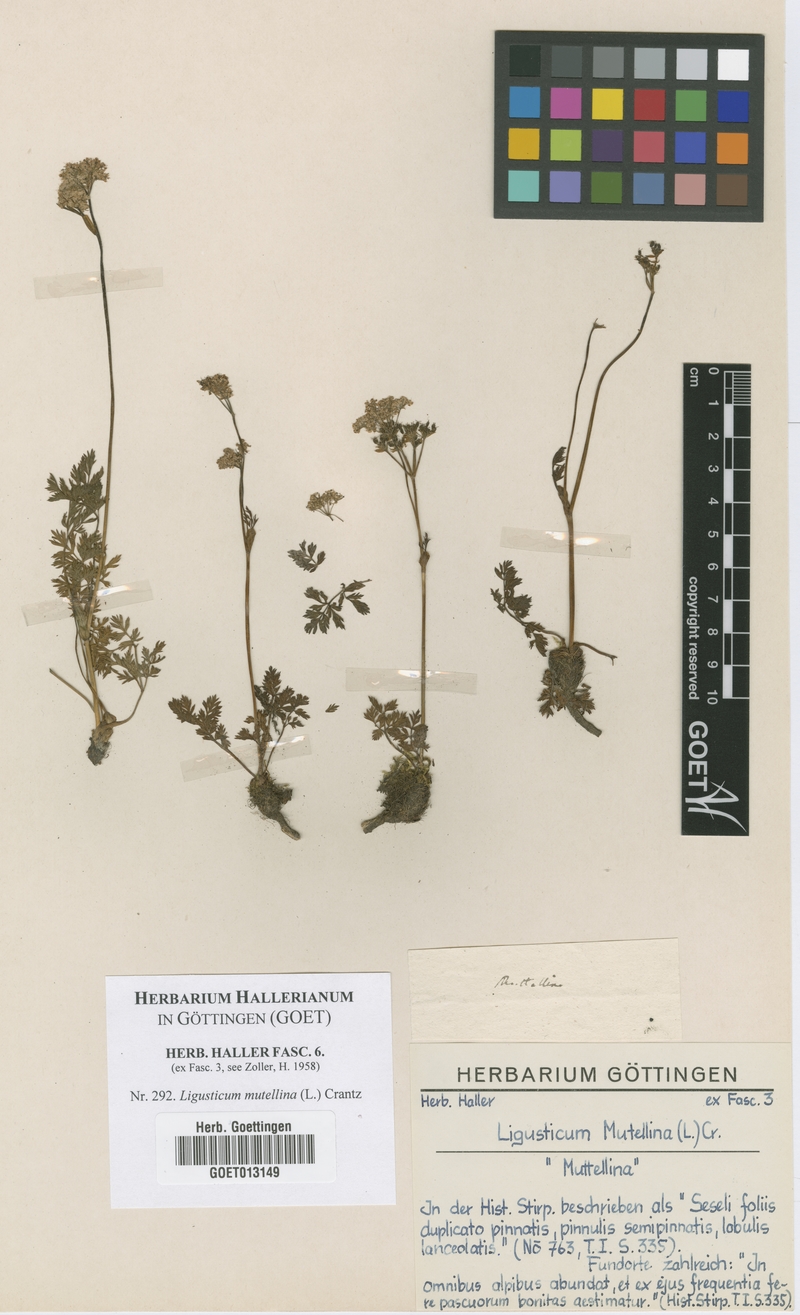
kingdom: Plantae
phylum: Tracheophyta
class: Magnoliopsida
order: Apiales
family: Apiaceae
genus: Mutellina
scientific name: Mutellina adonidifolia
